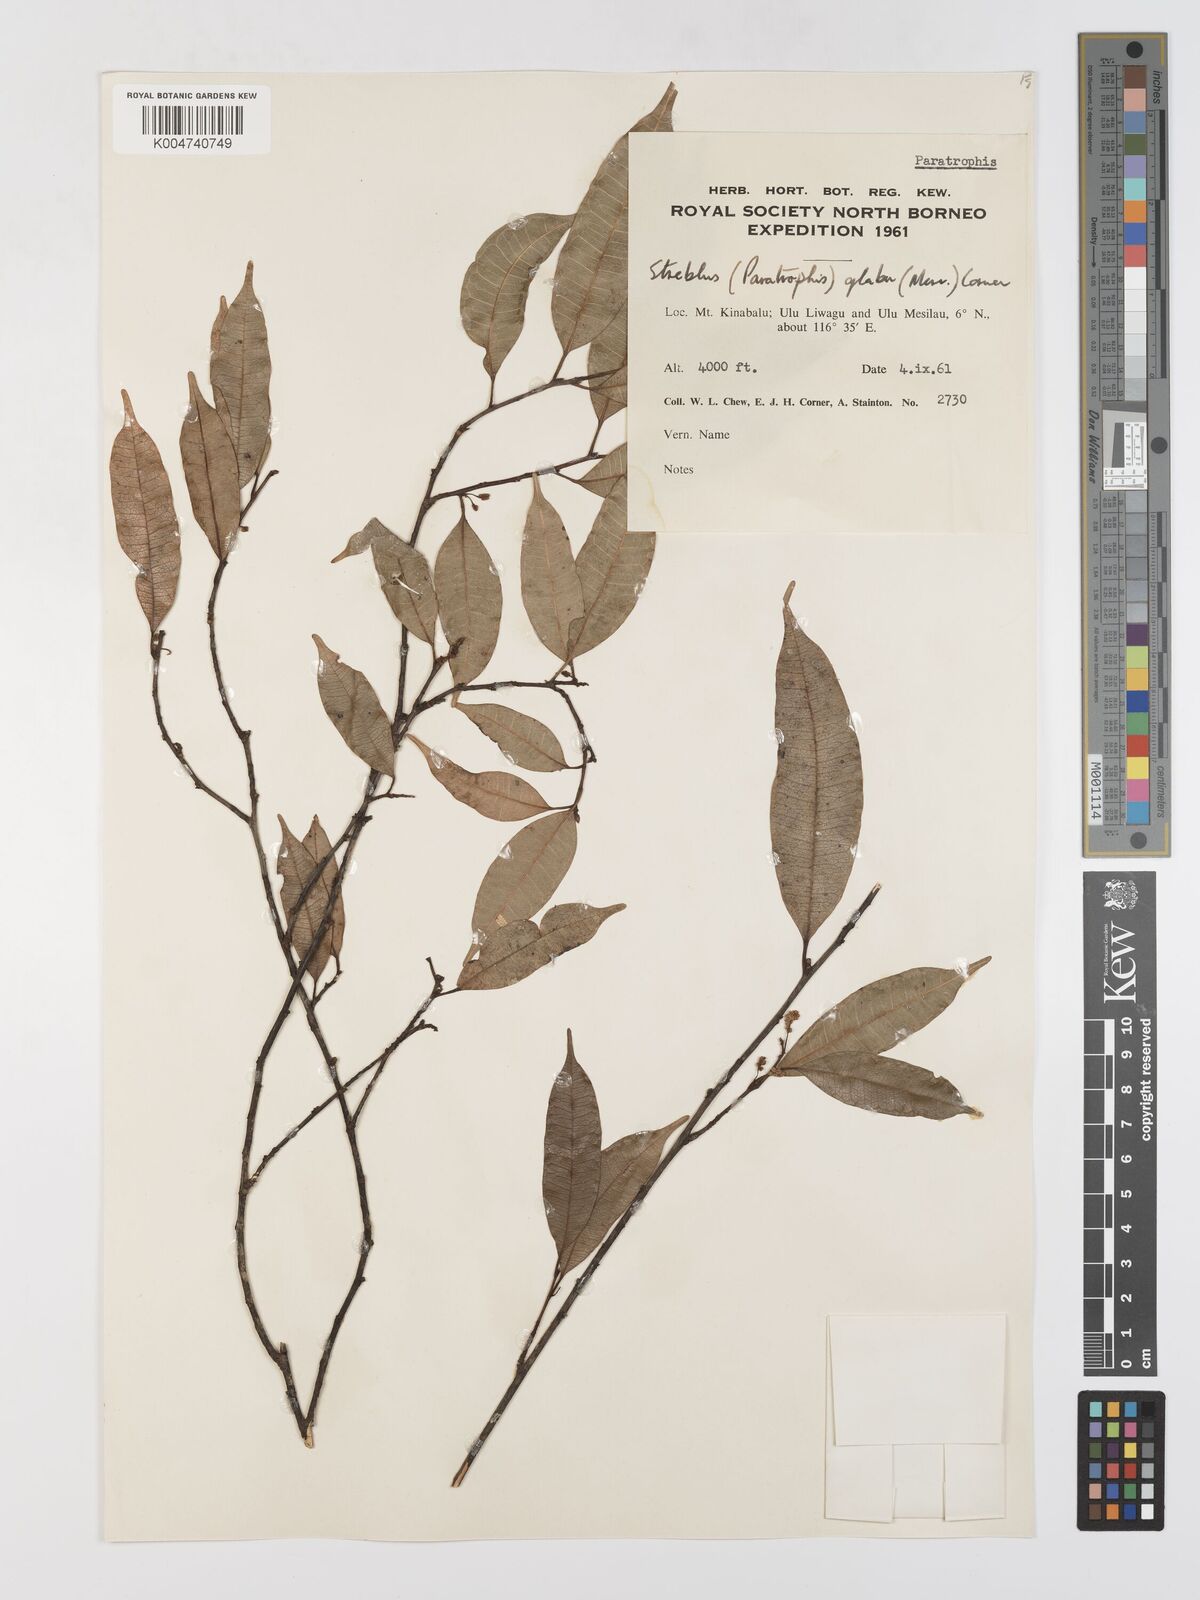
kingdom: Plantae
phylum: Tracheophyta
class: Magnoliopsida
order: Rosales
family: Moraceae
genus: Paratrophis
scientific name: Paratrophis glabra
